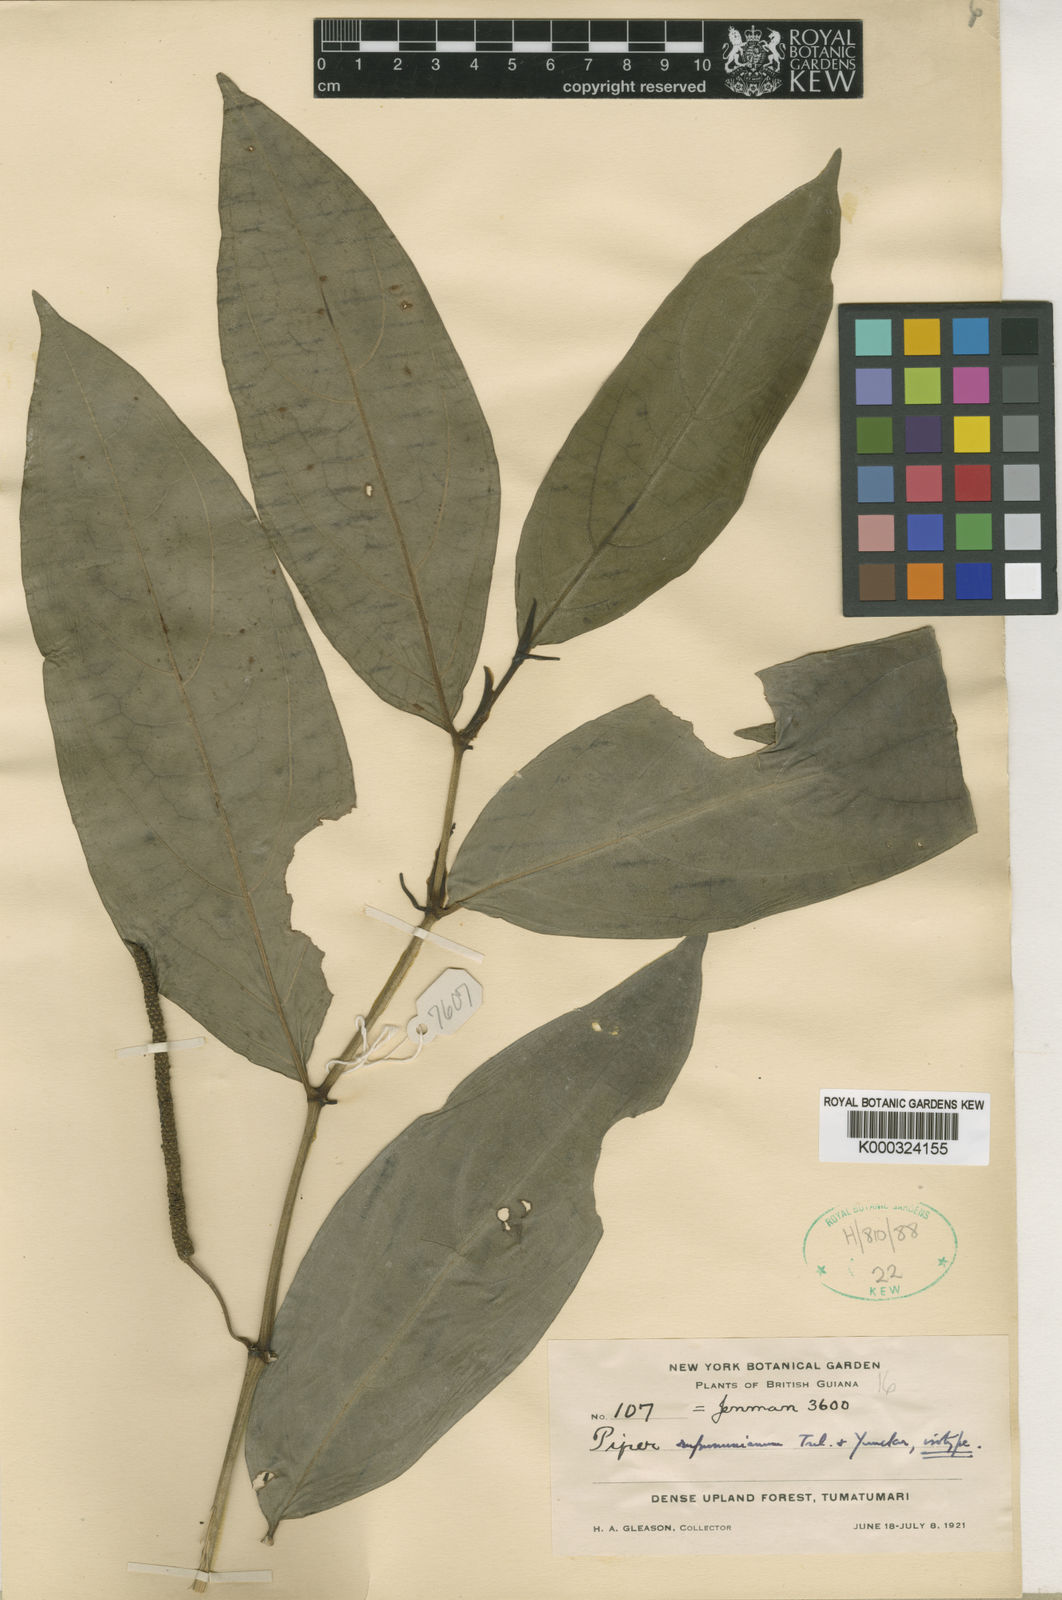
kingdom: Plantae
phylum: Tracheophyta
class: Magnoliopsida
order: Piperales
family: Piperaceae
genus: Piper
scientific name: Piper rupununianum
